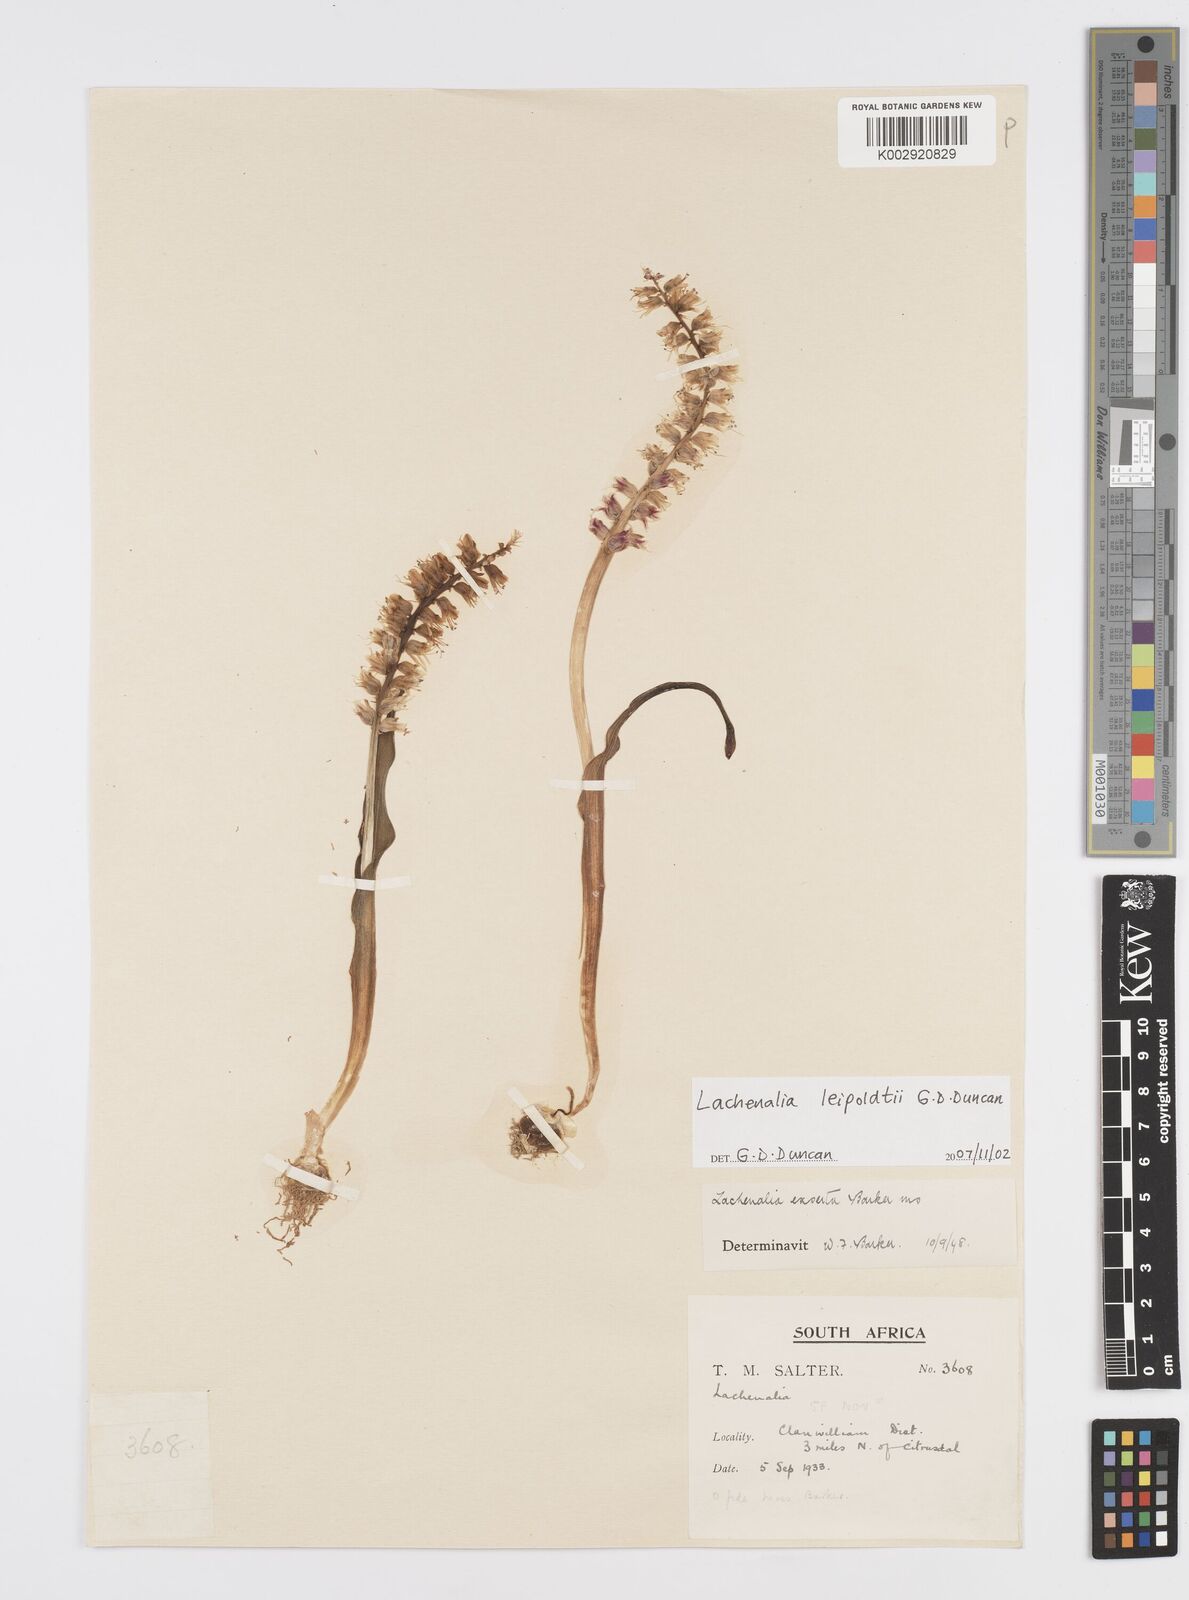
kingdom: Plantae
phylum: Tracheophyta
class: Liliopsida
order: Asparagales
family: Asparagaceae
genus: Lachenalia
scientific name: Lachenalia leipoldtii
